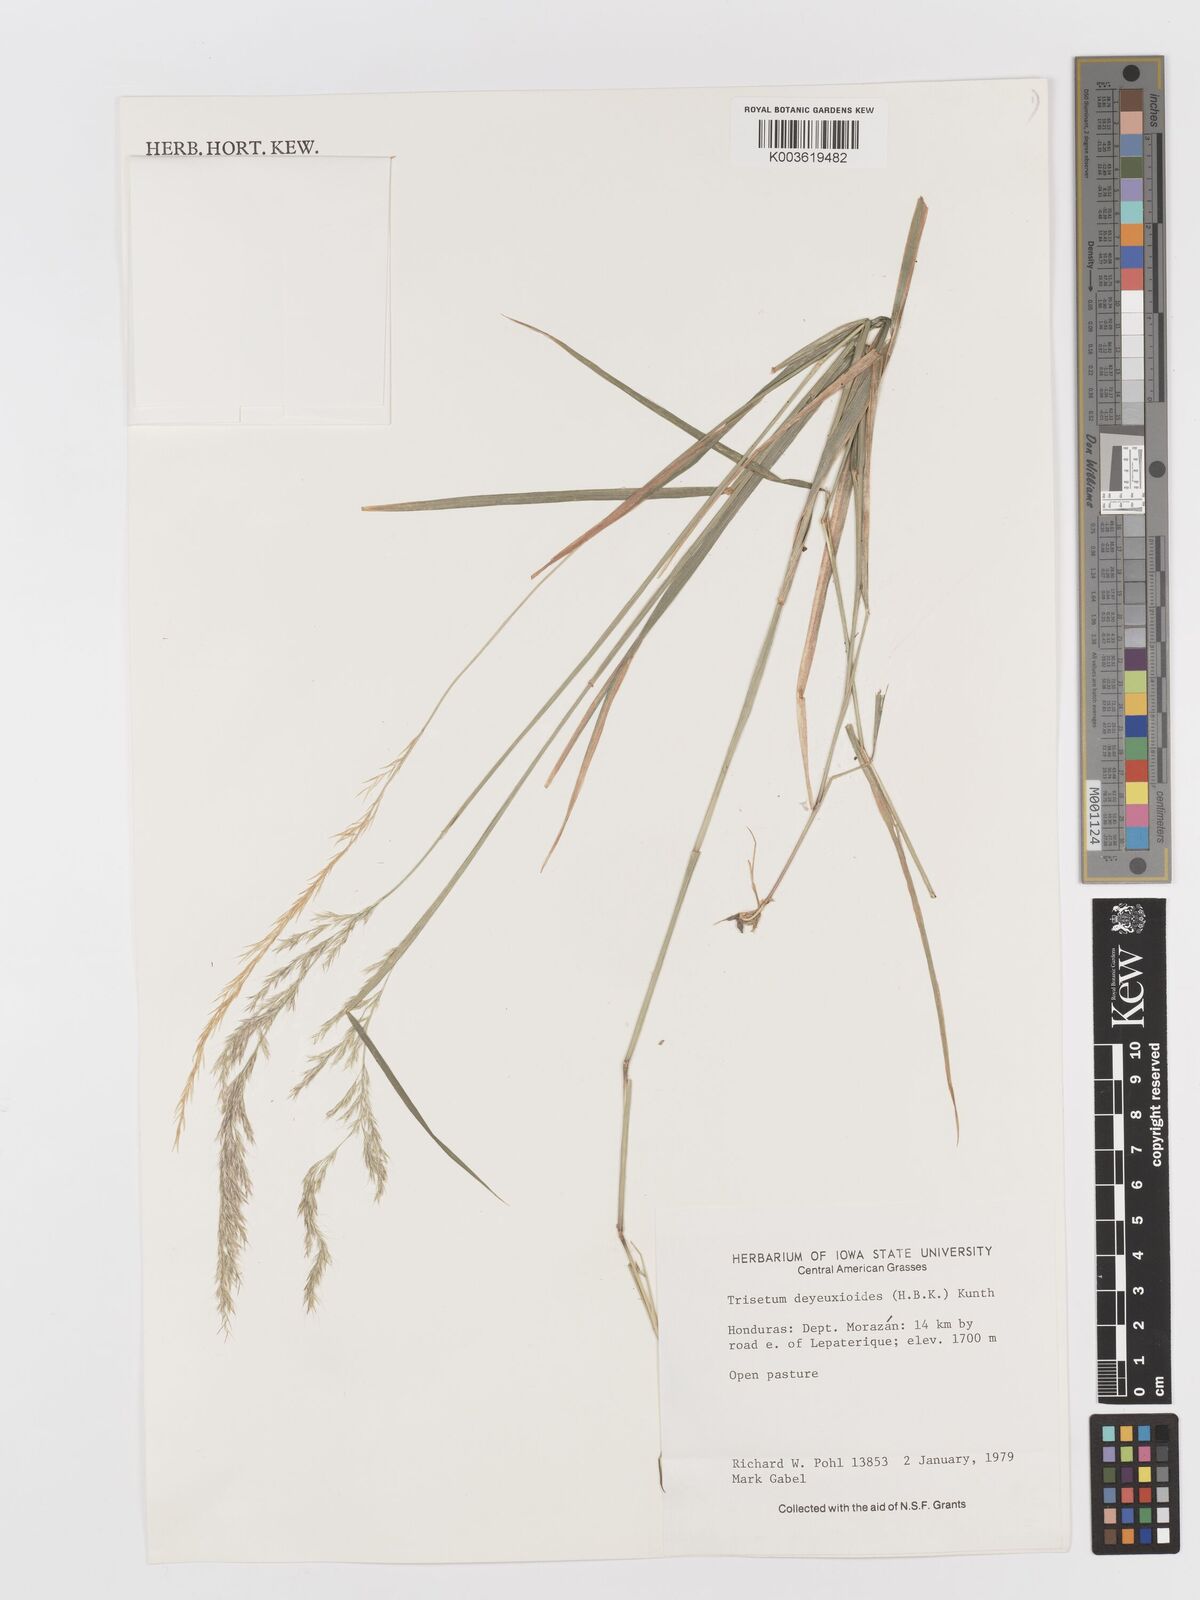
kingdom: Plantae
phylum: Tracheophyta
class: Liliopsida
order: Poales
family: Poaceae
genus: Peyritschia
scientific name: Peyritschia deyeuxioides
